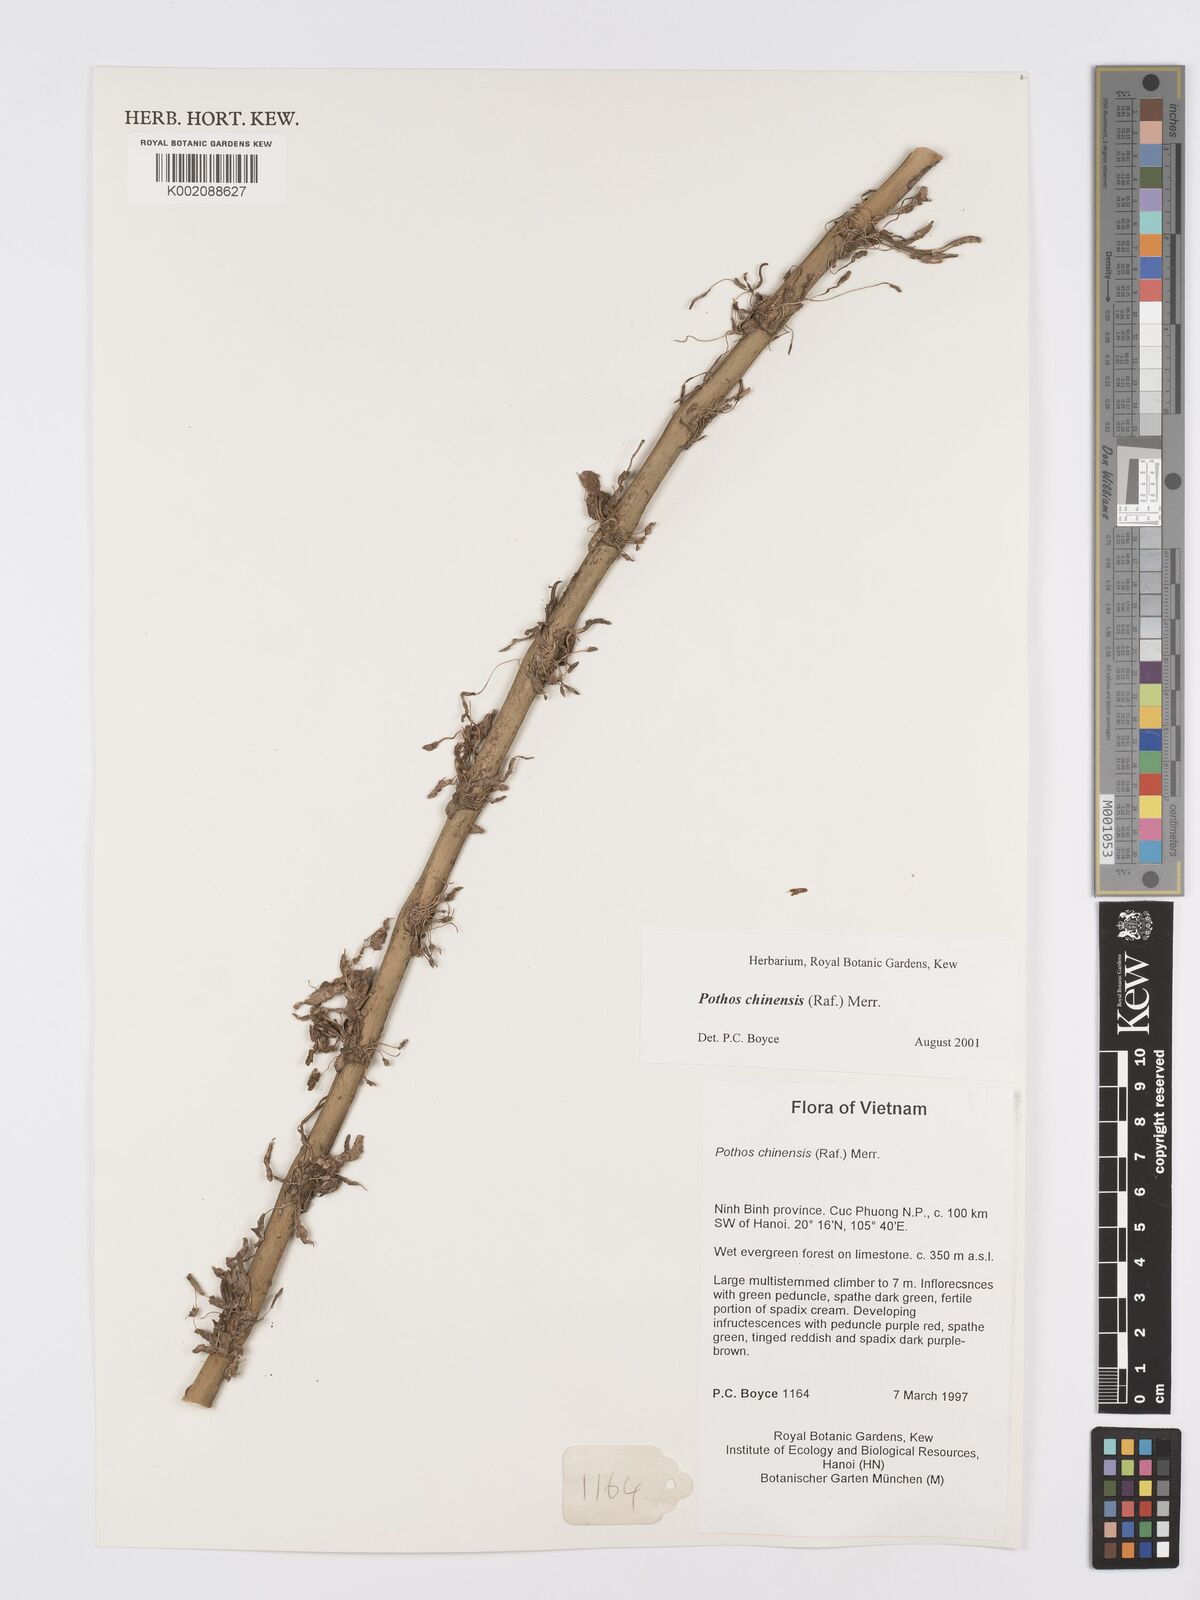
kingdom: Plantae
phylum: Tracheophyta
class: Liliopsida
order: Alismatales
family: Araceae
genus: Pothos
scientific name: Pothos chinensis
